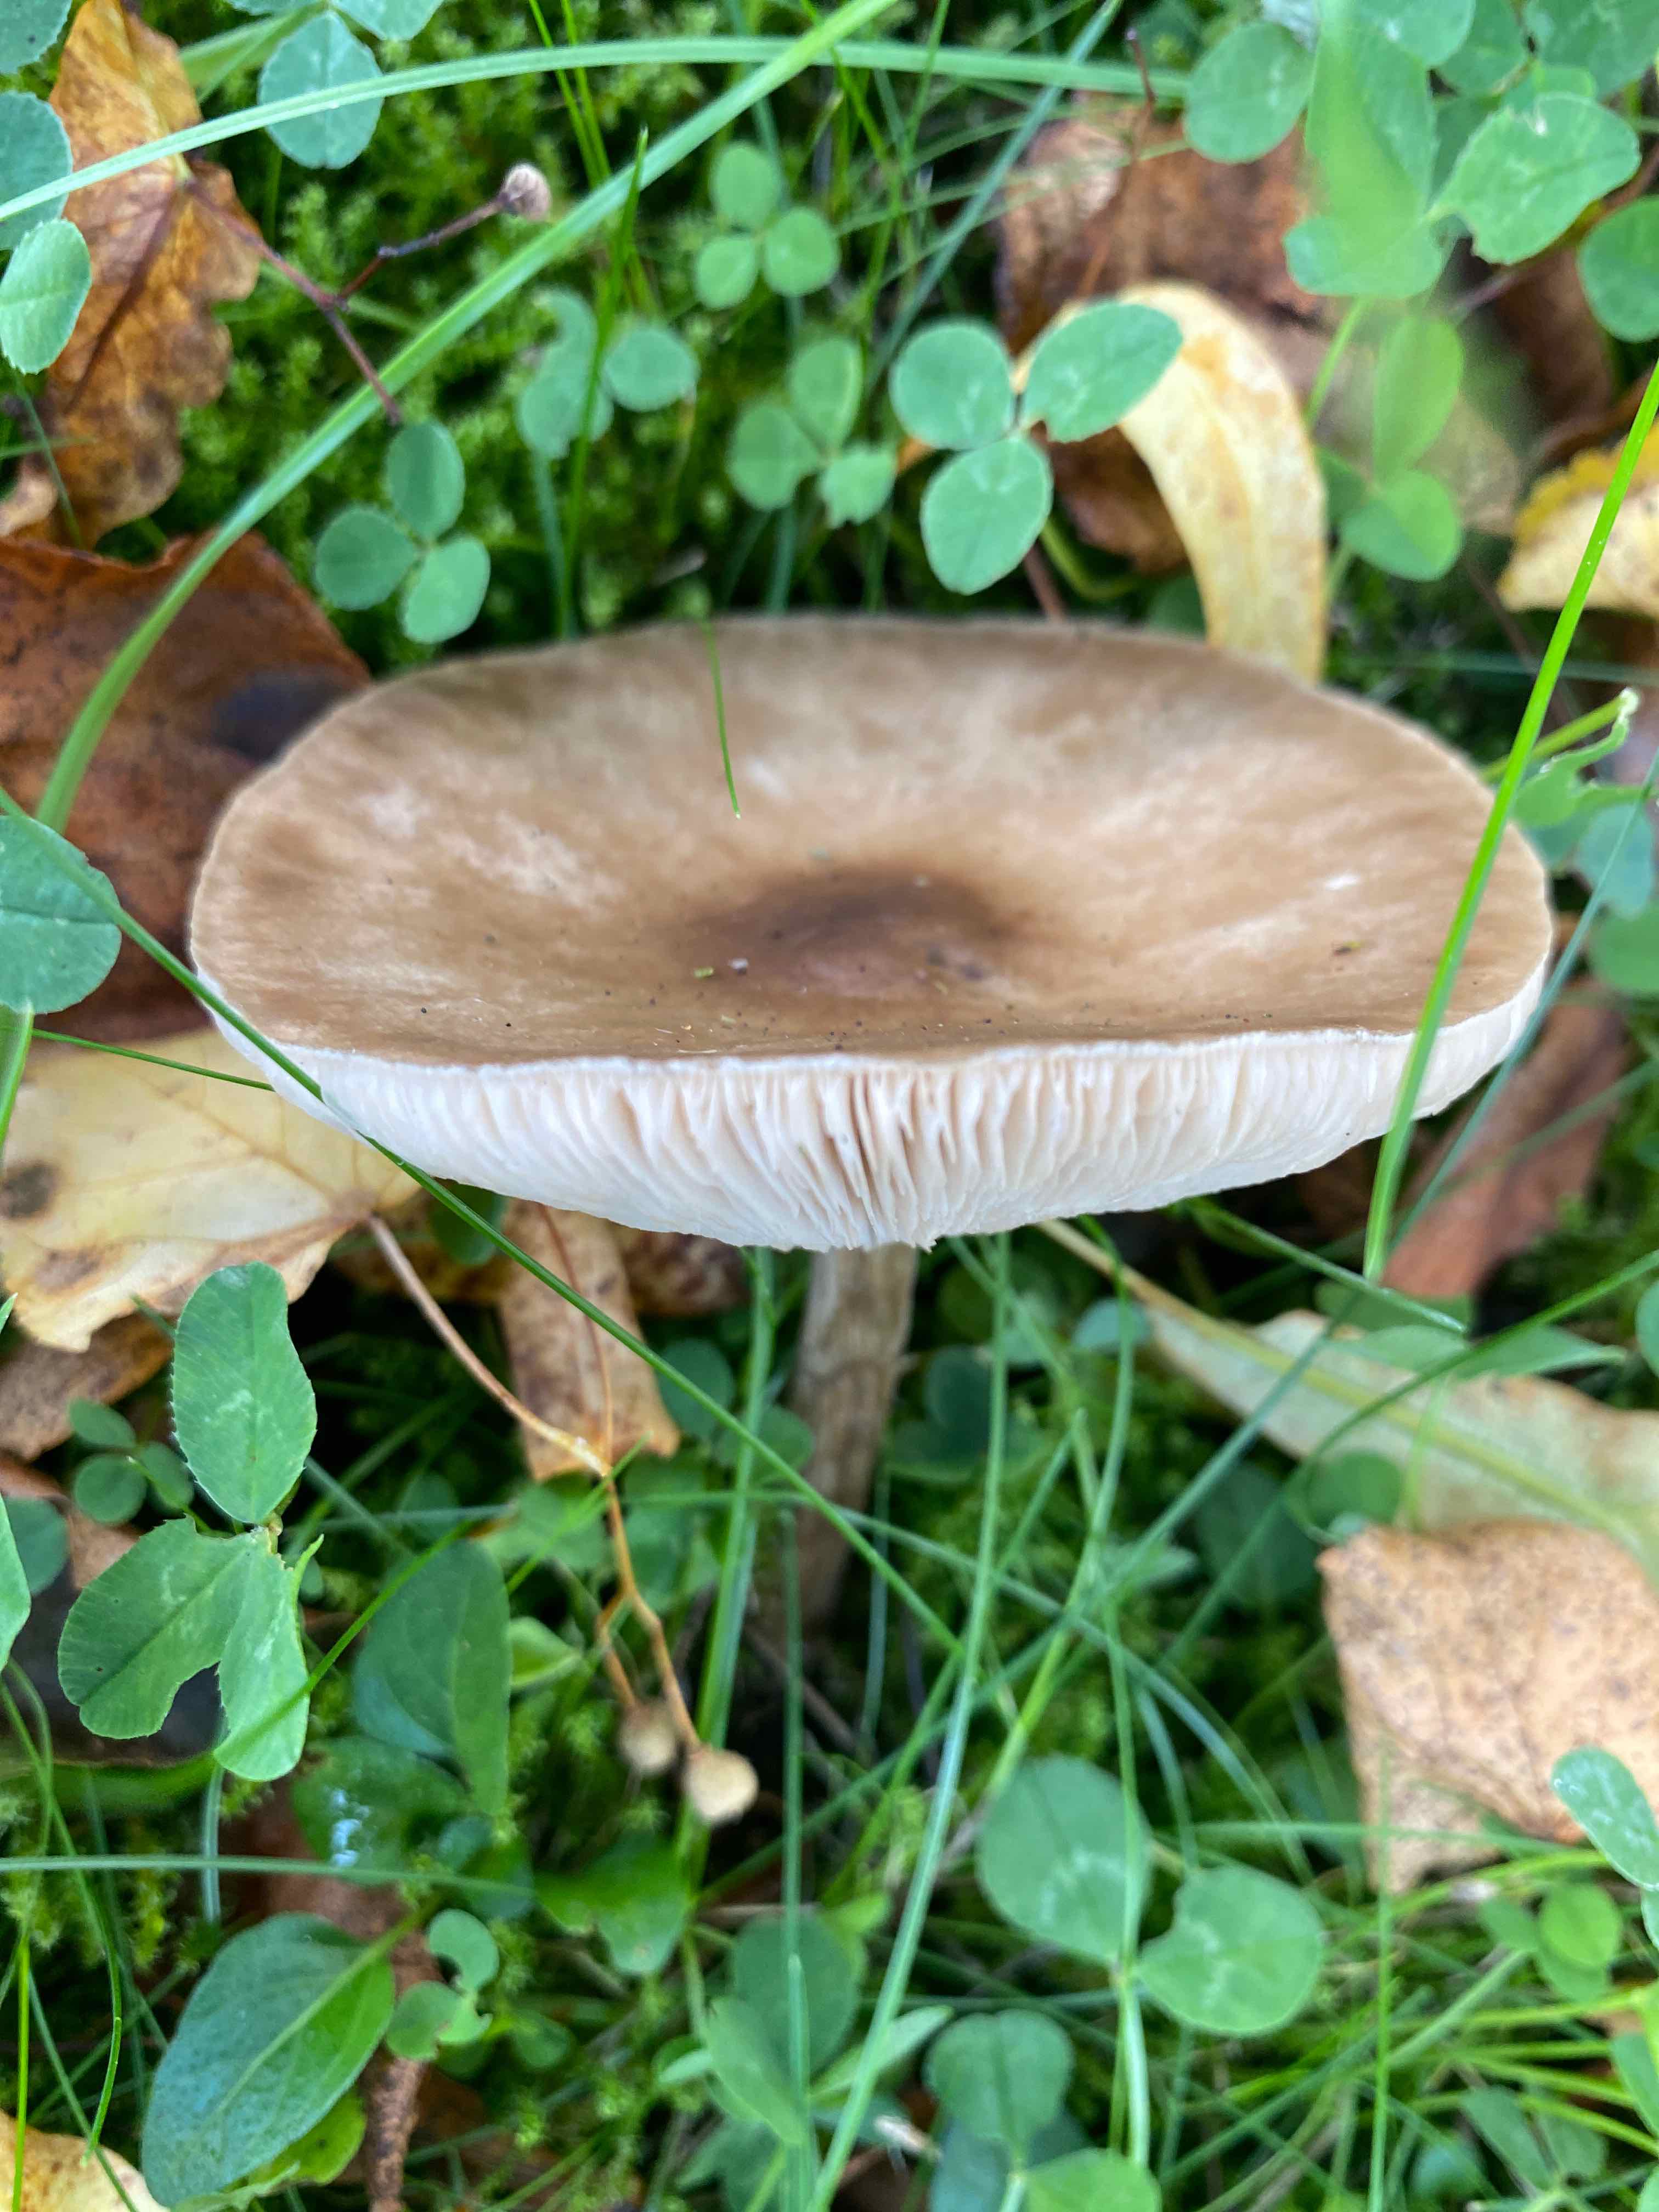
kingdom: Fungi
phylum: Basidiomycota
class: Agaricomycetes
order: Agaricales
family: Tricholomataceae
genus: Melanoleuca
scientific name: Melanoleuca
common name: munkehat
